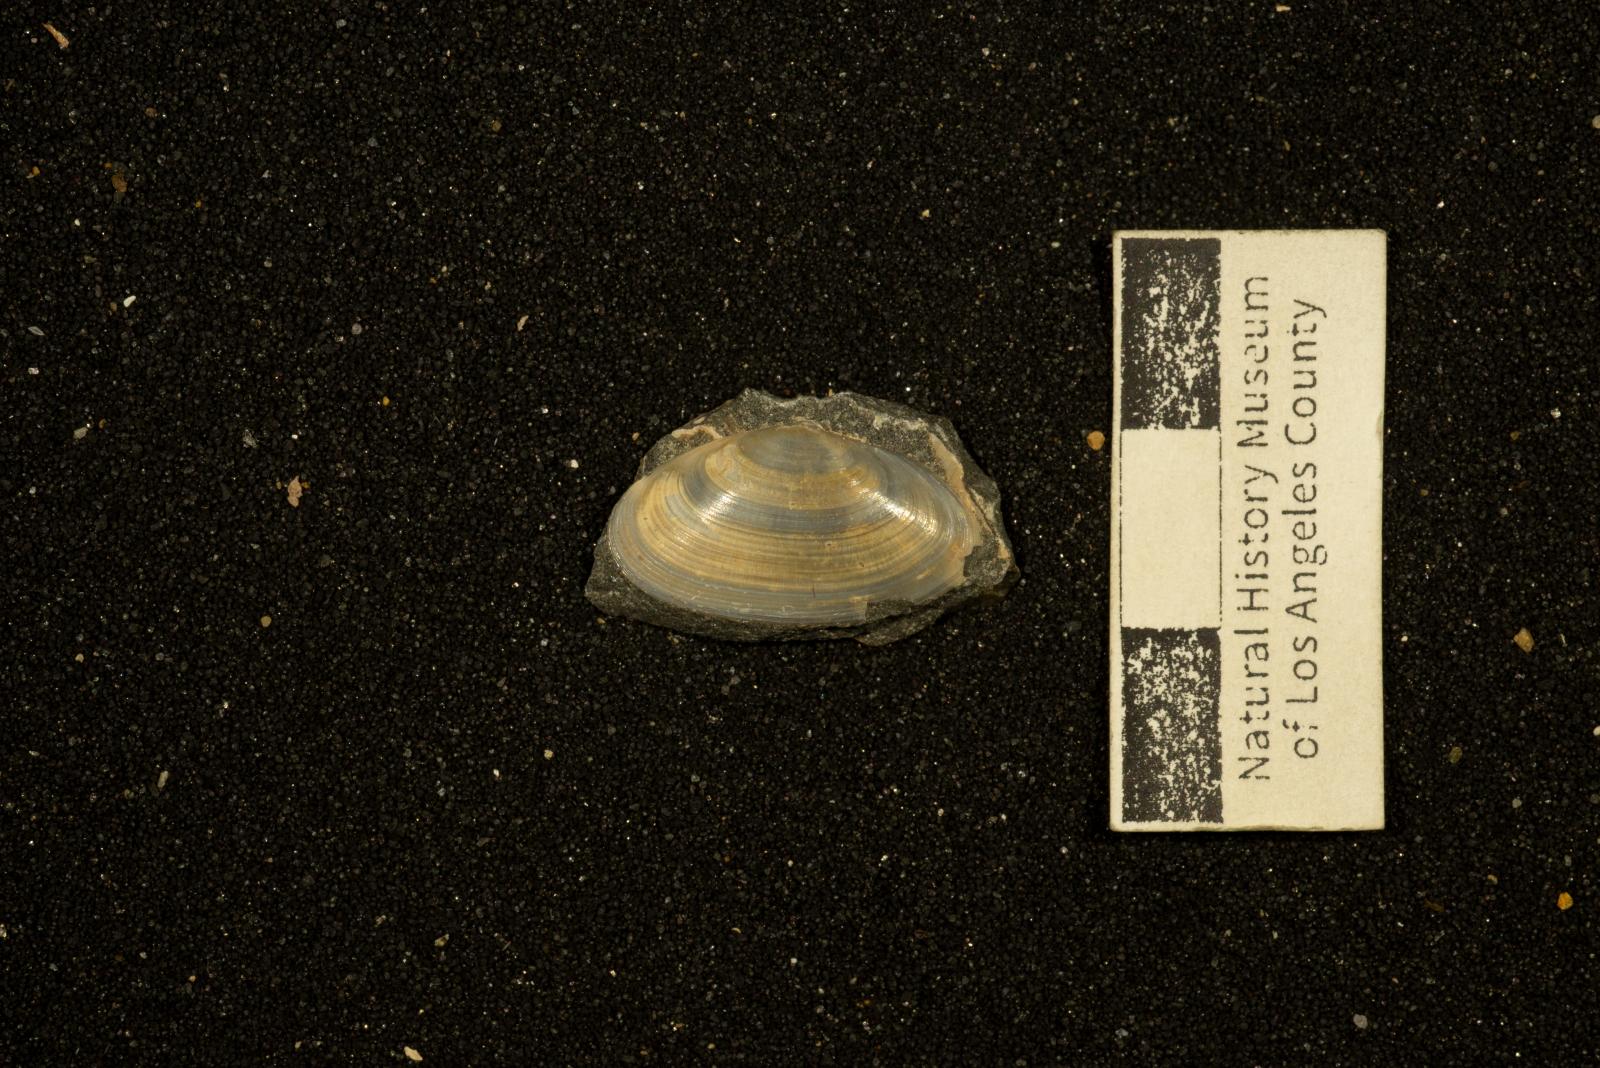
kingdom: Animalia
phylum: Mollusca
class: Bivalvia
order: Cardiida
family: Tellinidae
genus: Tellina
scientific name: Tellina ashburnerii
